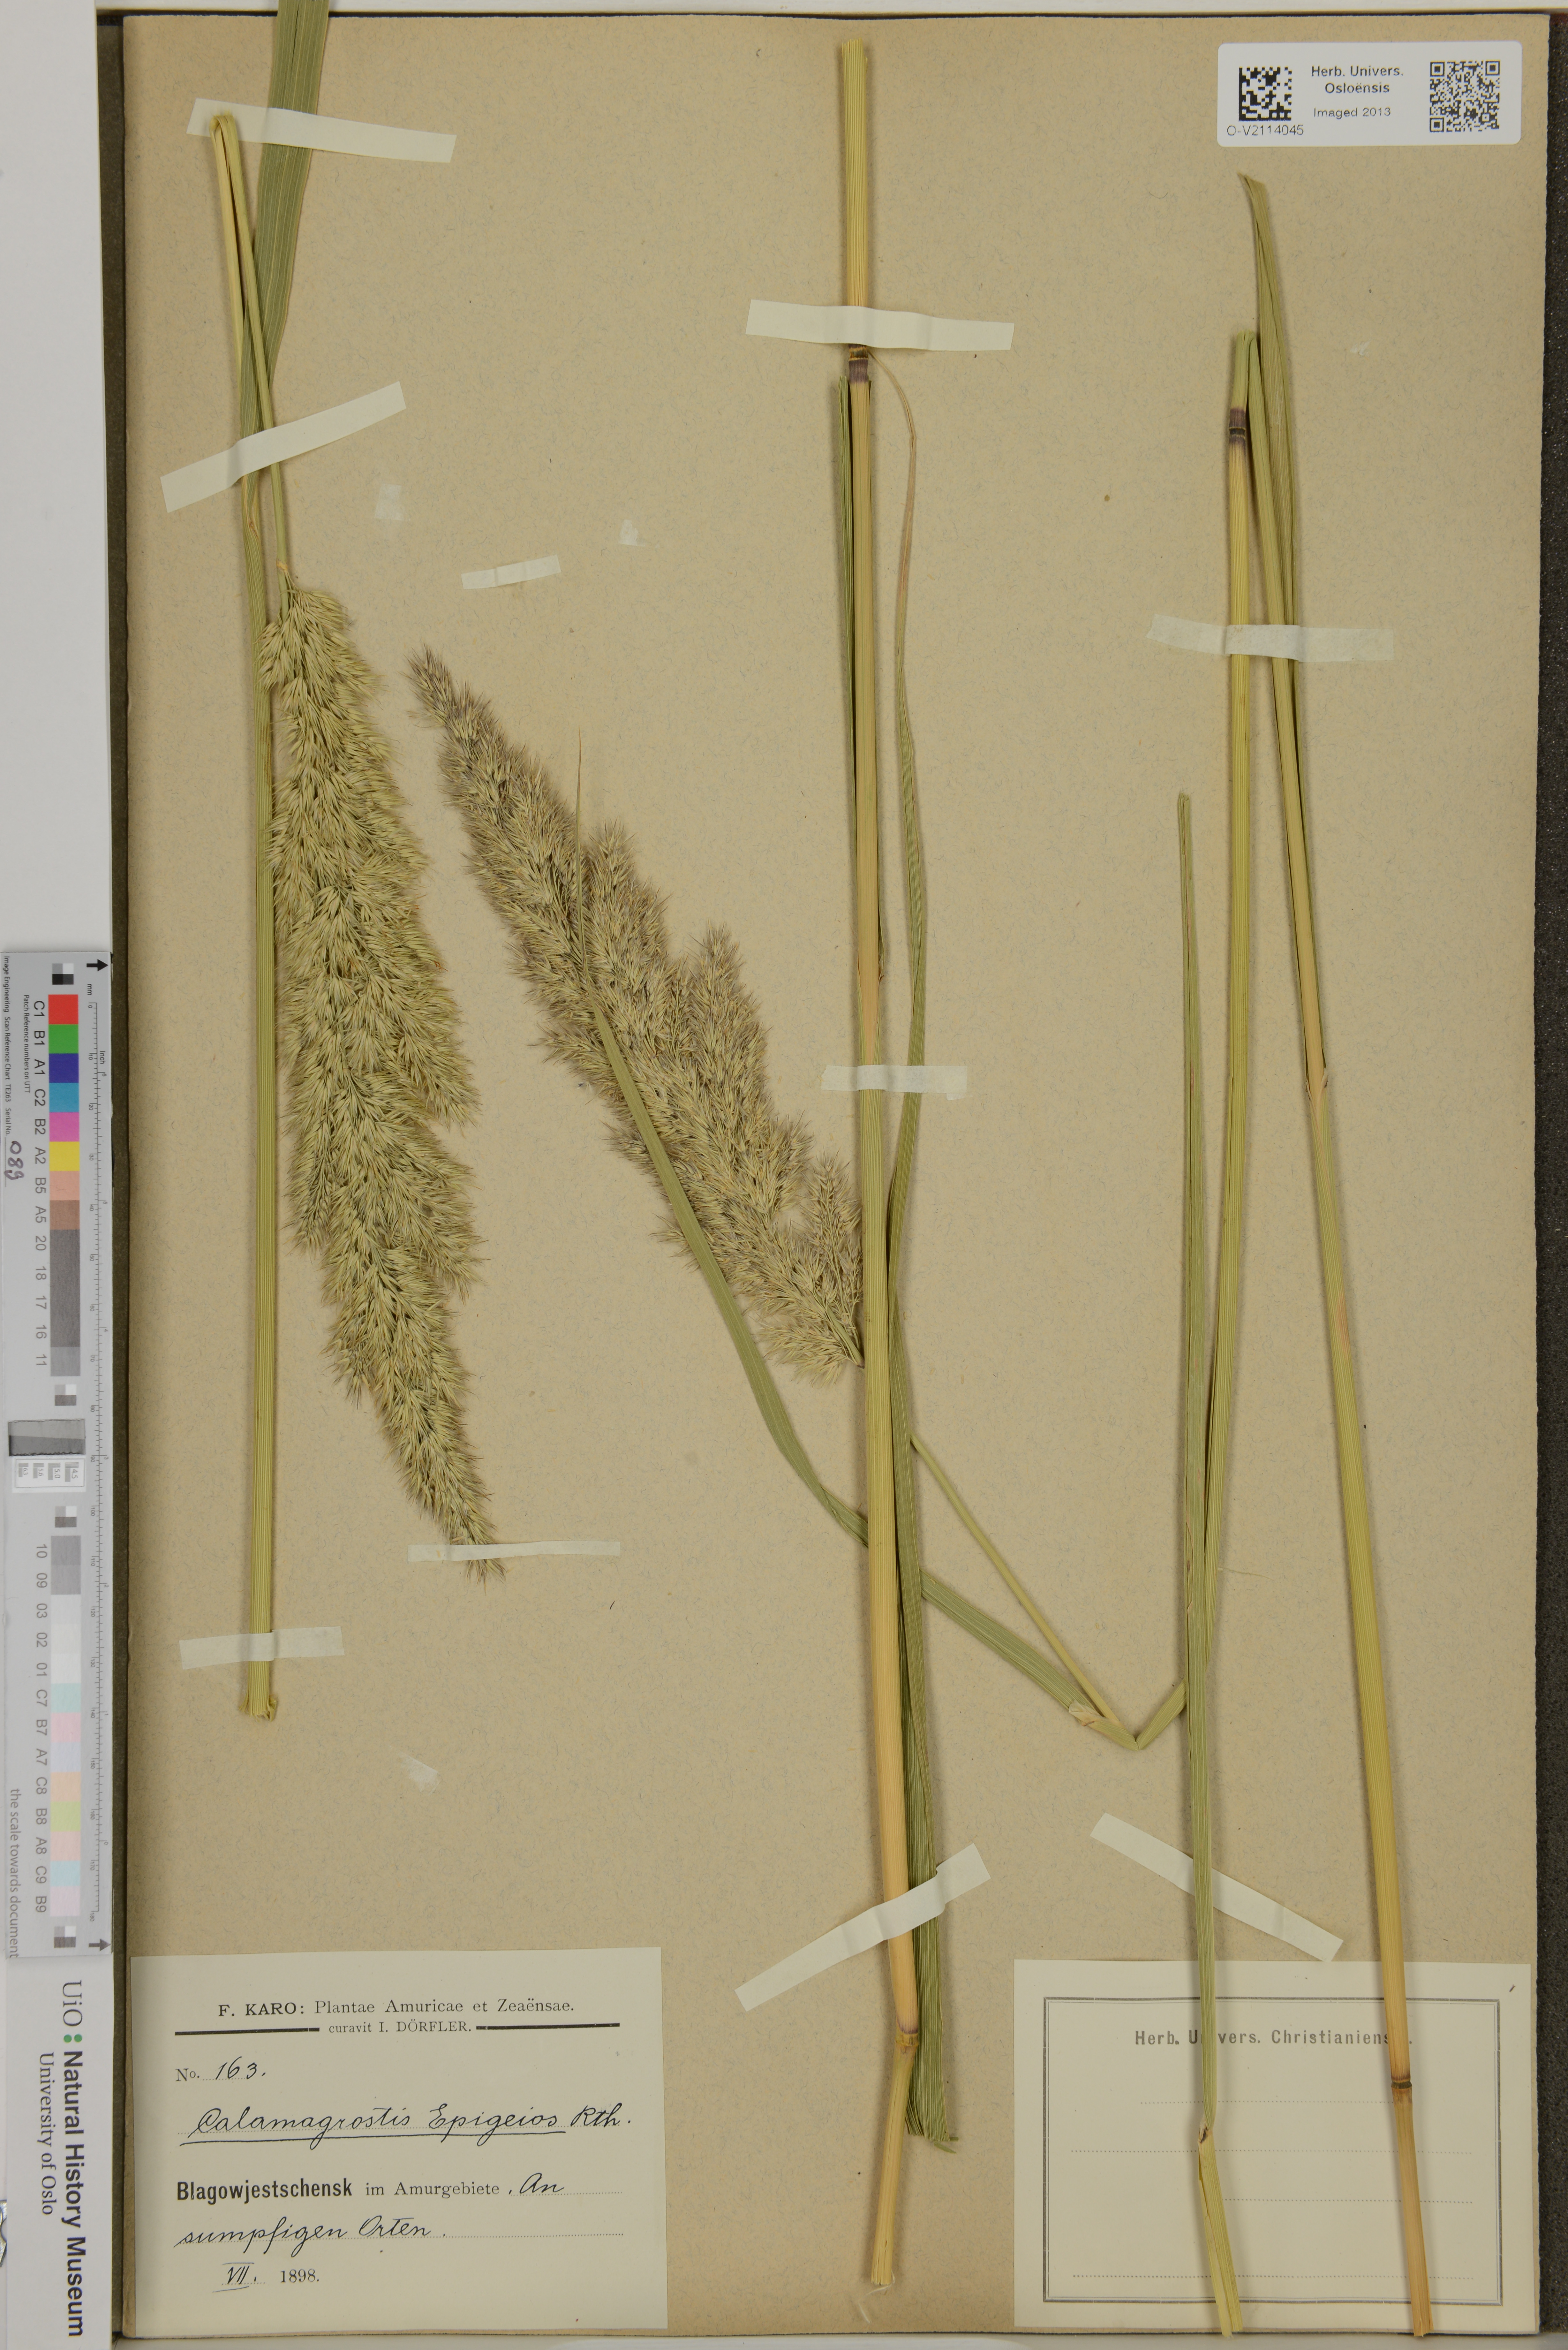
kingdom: Plantae
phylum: Tracheophyta
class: Liliopsida
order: Poales
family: Poaceae
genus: Calamagrostis
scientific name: Calamagrostis epigejos
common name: Wood small-reed
